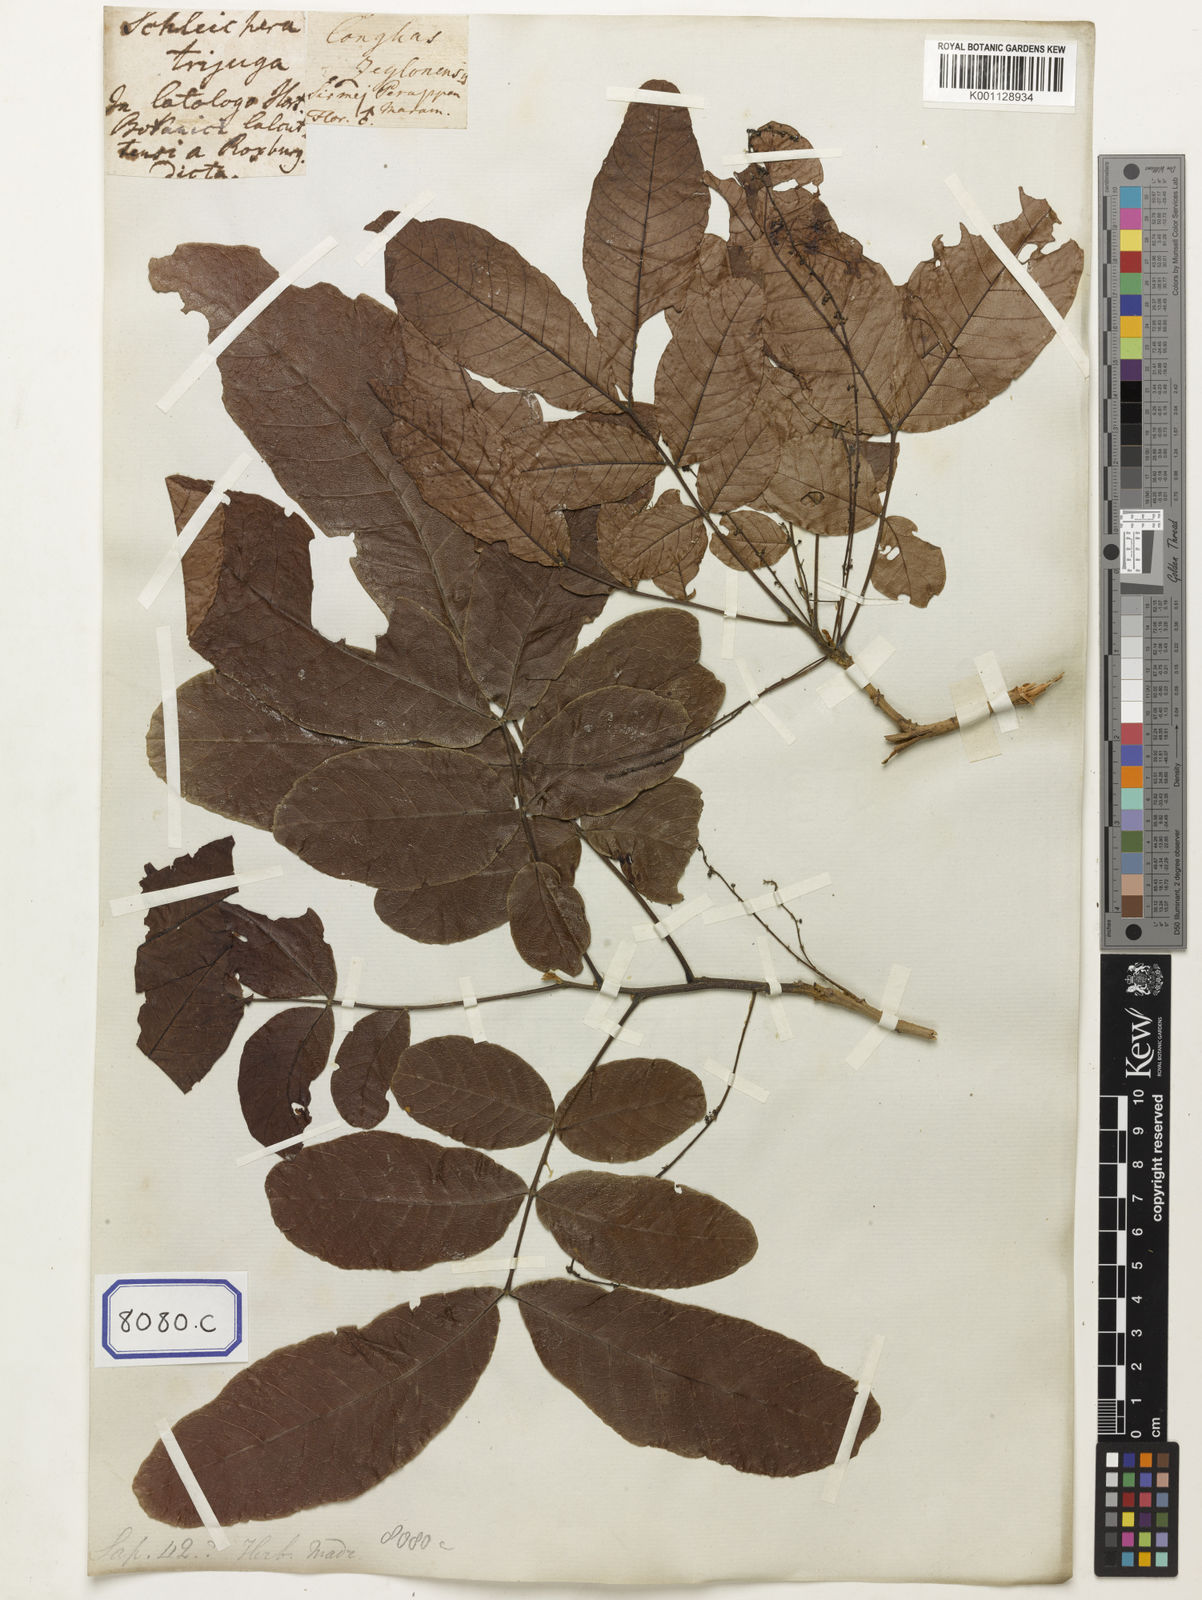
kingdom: Plantae
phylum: Tracheophyta
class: Magnoliopsida
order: Sapindales
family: Sapindaceae
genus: Schleichera
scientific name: Schleichera oleosa
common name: Malay lactree
